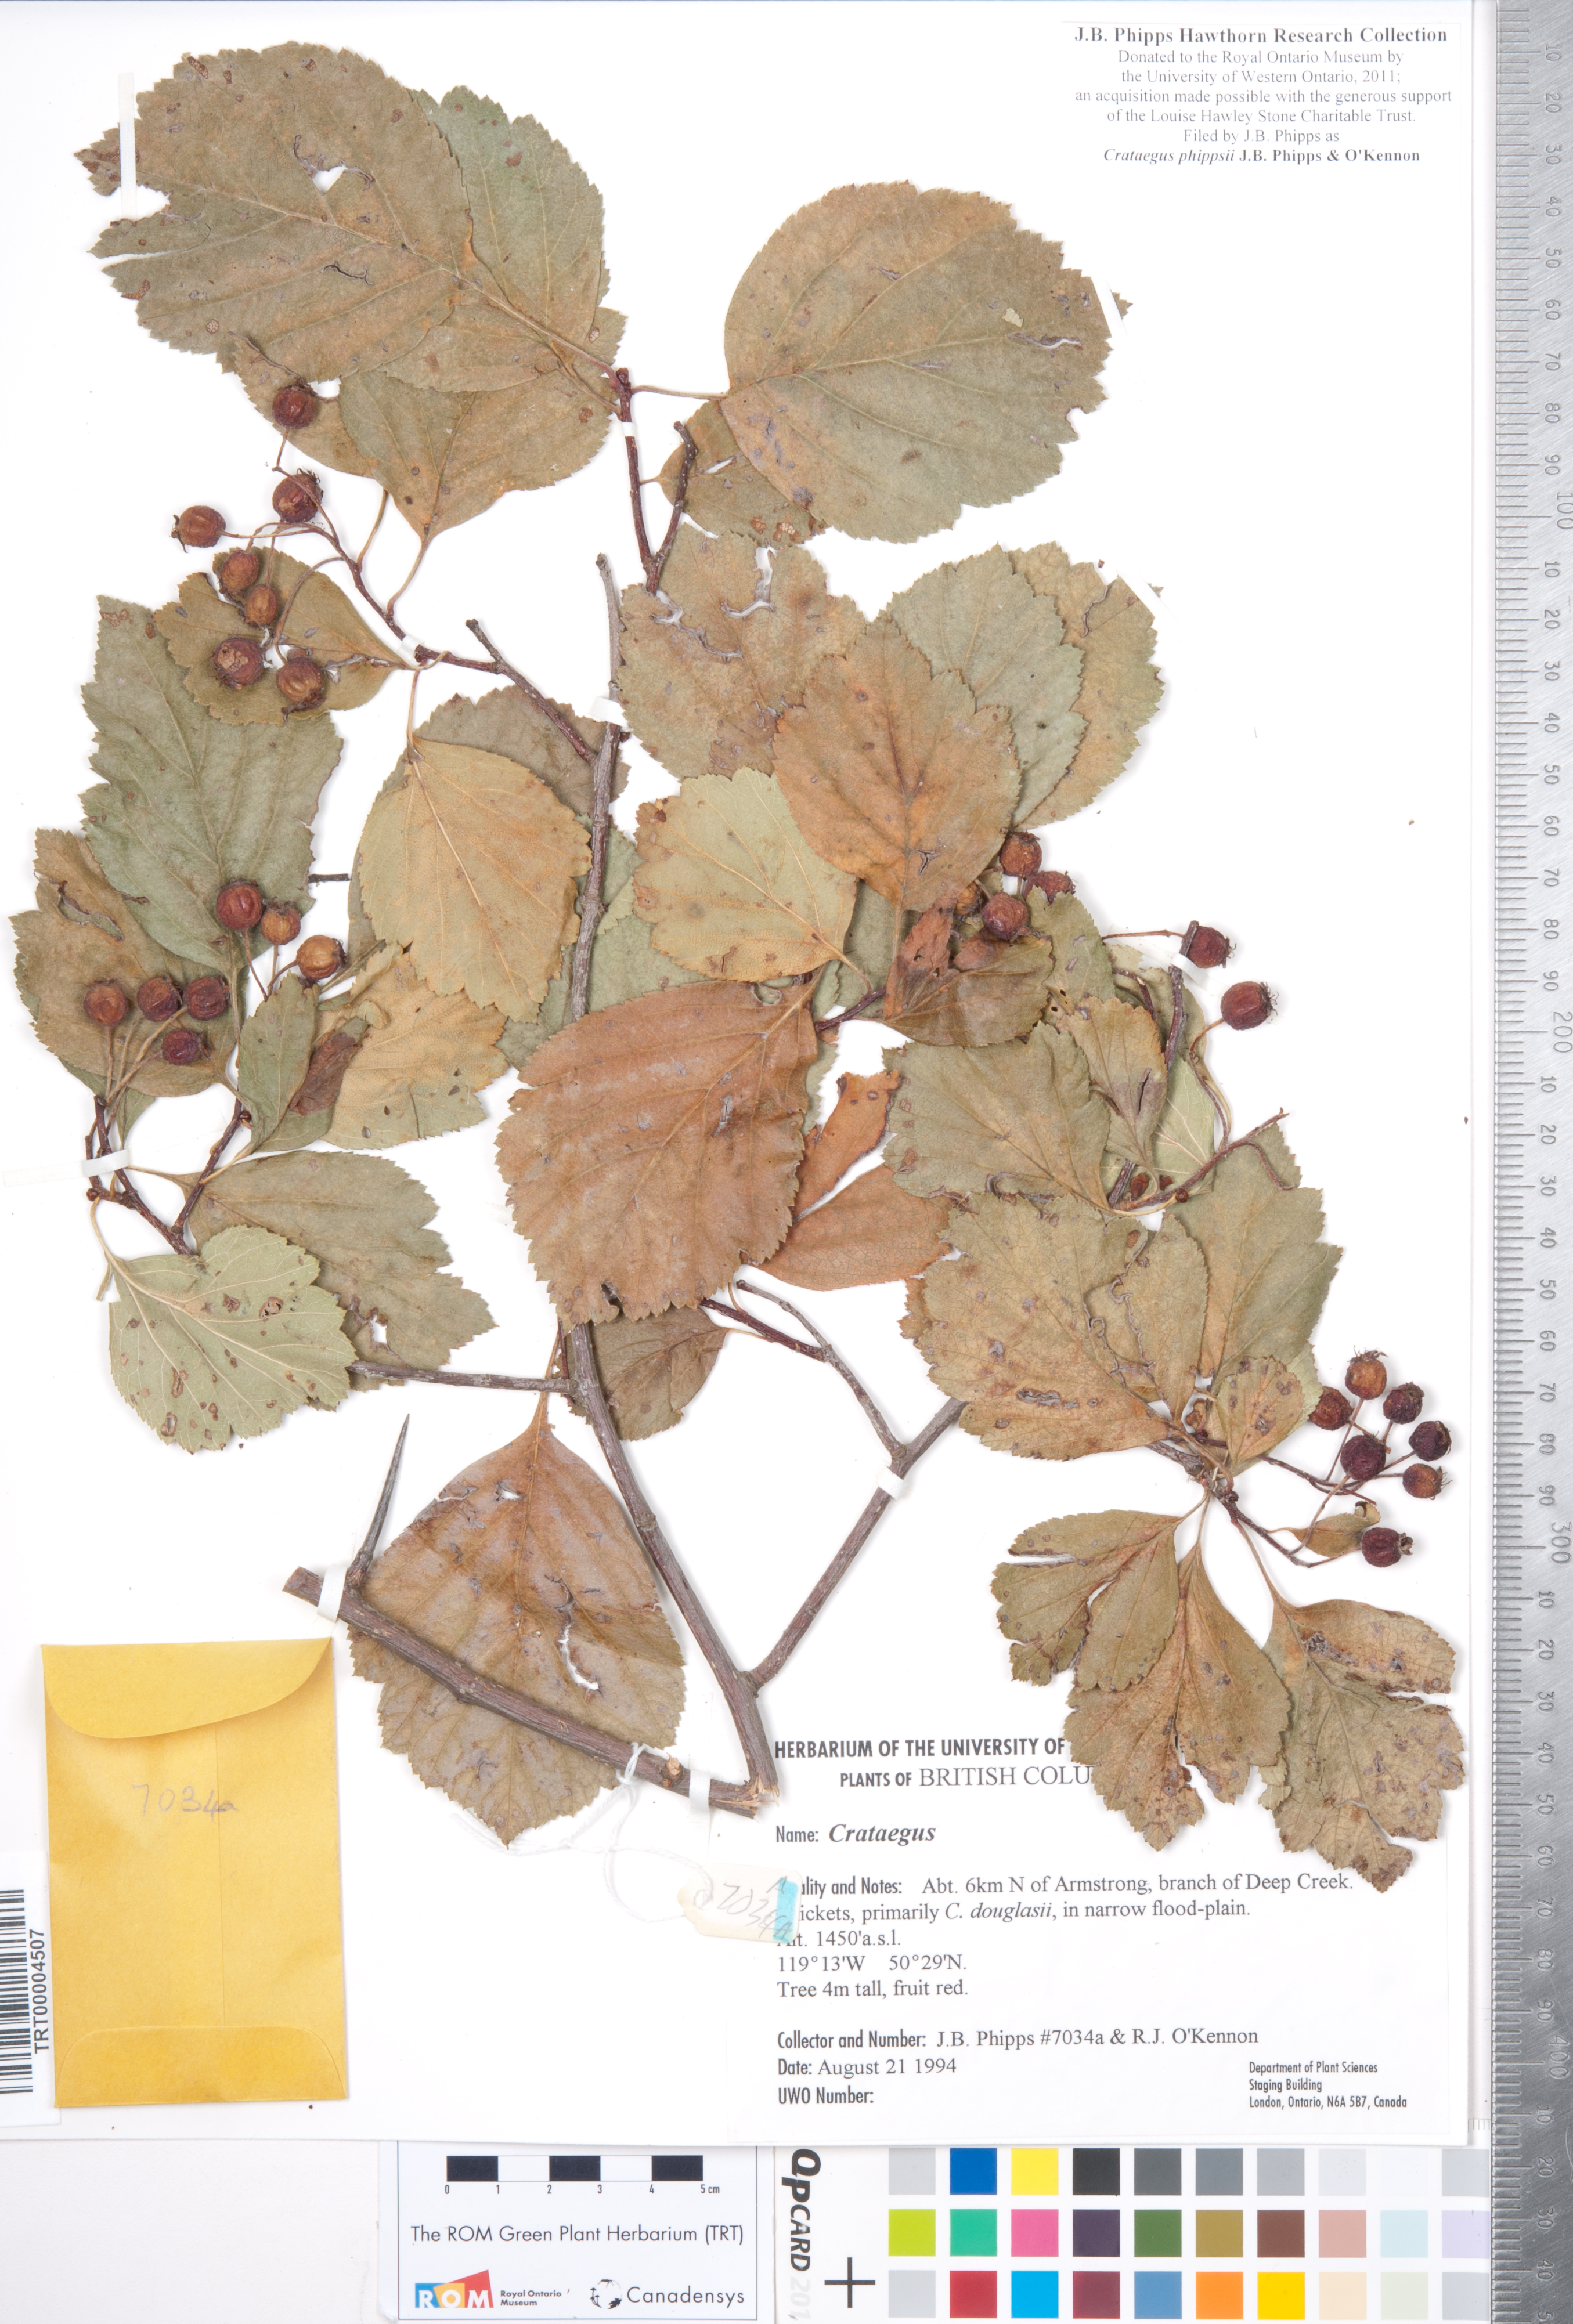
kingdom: Plantae
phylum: Tracheophyta
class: Magnoliopsida
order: Rosales
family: Rosaceae
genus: Crataegus
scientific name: Crataegus phippsii
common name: Phipps' hawthorn
